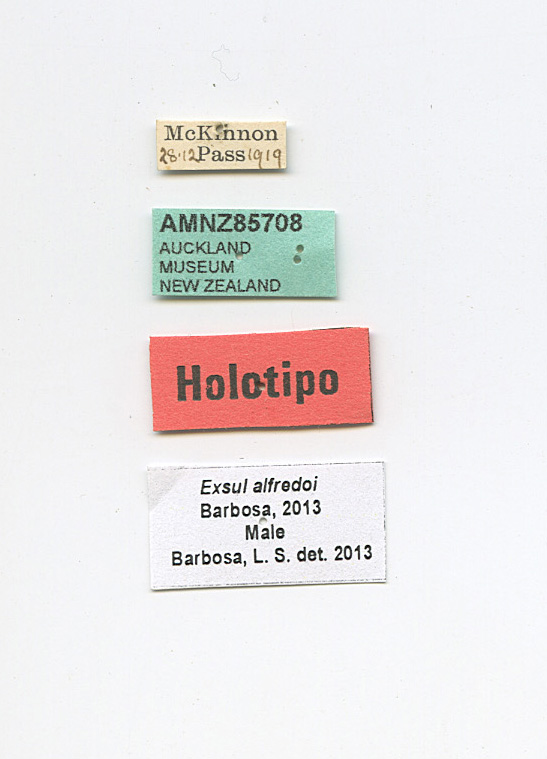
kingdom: Animalia
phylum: Arthropoda
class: Insecta
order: Diptera
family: Muscidae
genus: Exsul
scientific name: Exsul alfredoi
